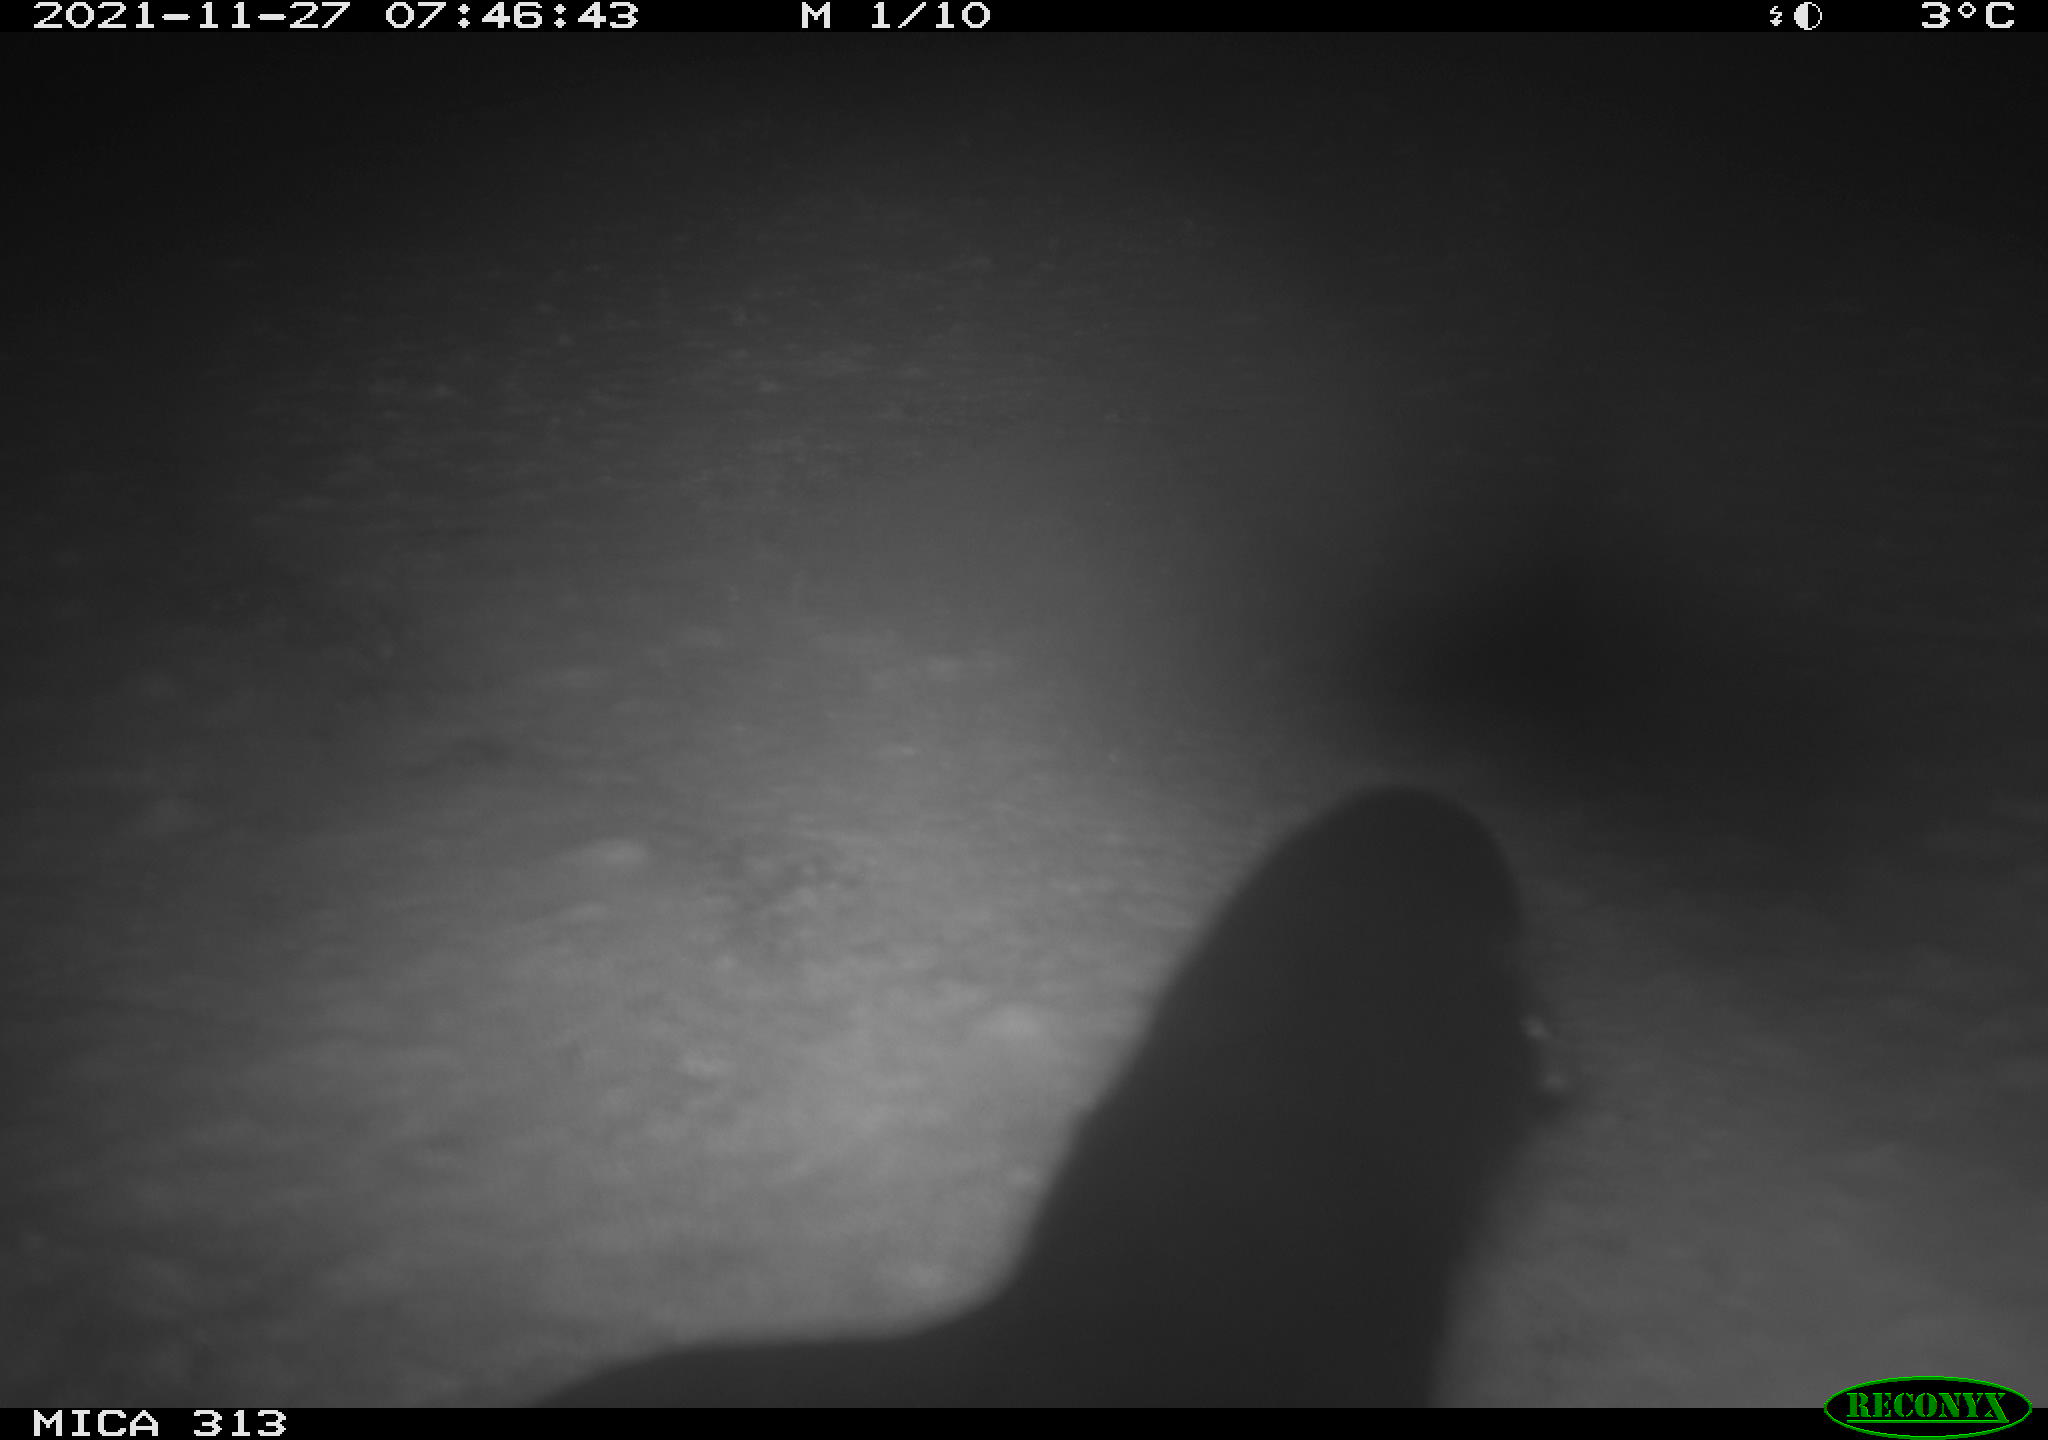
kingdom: Animalia
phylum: Chordata
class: Aves
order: Gruiformes
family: Rallidae
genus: Gallinula
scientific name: Gallinula chloropus
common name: Common moorhen
